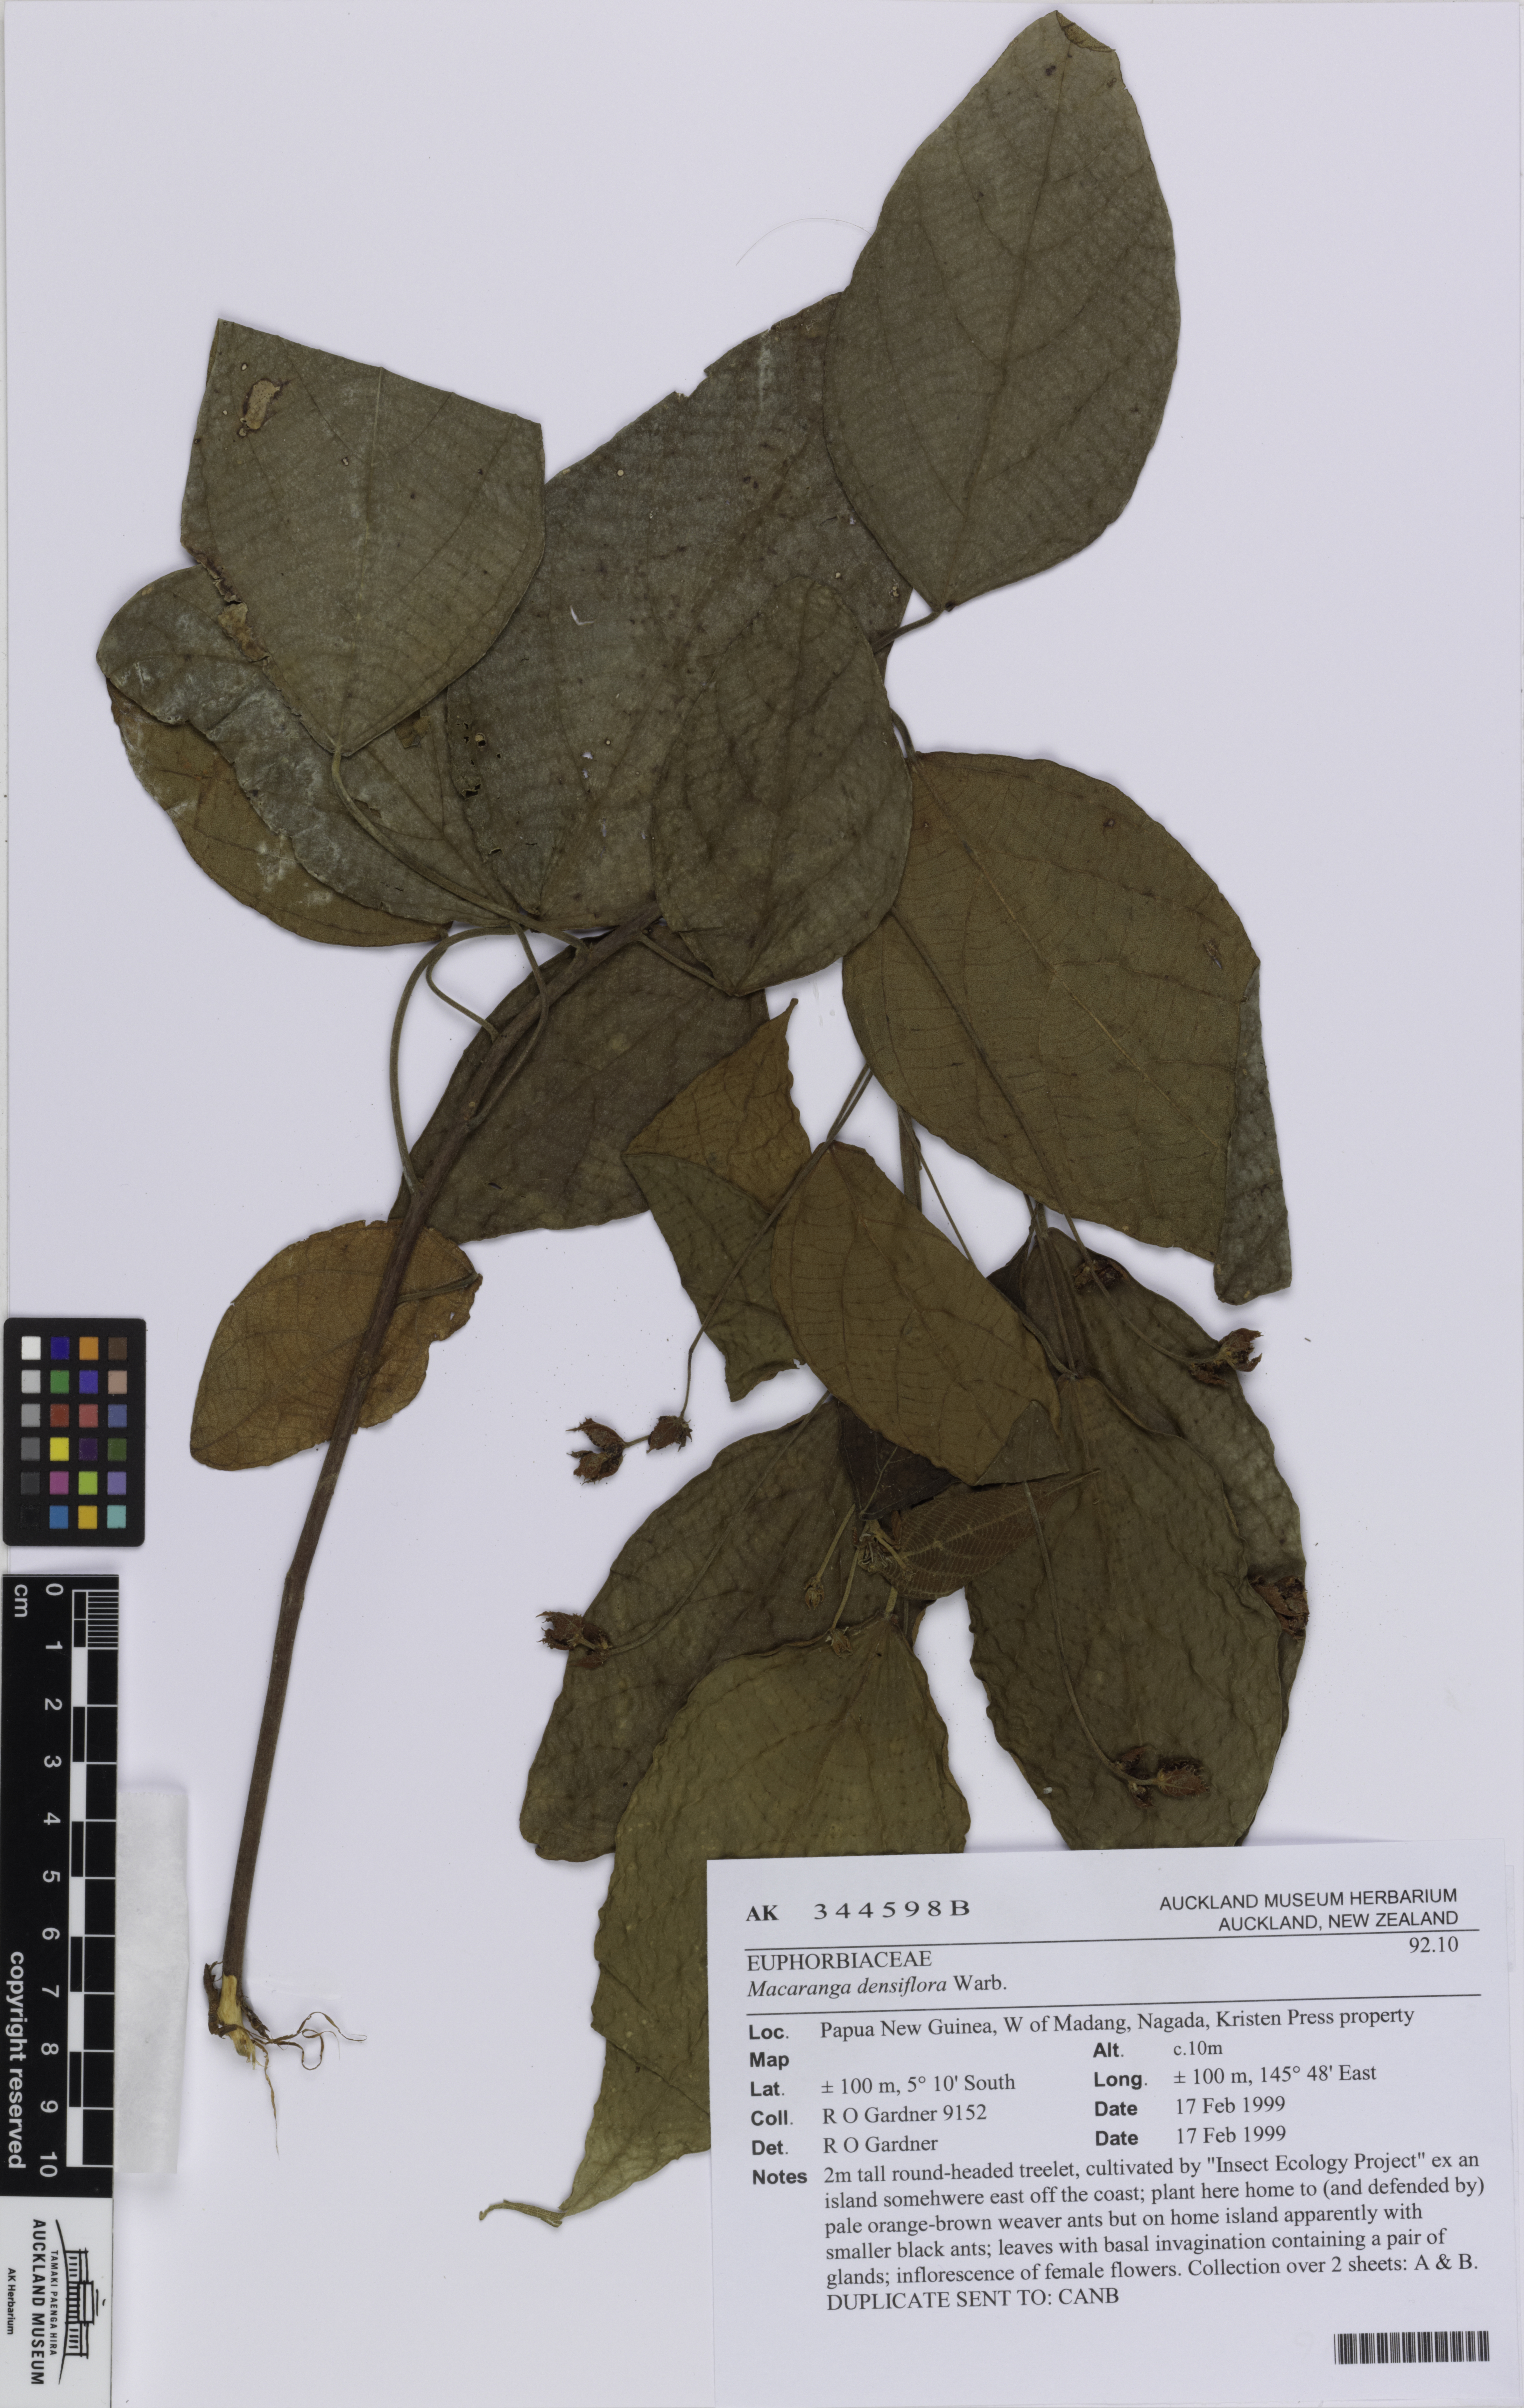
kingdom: Plantae
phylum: Tracheophyta
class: Magnoliopsida
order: Malpighiales
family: Euphorbiaceae
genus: Macaranga
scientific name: Macaranga densiflora
